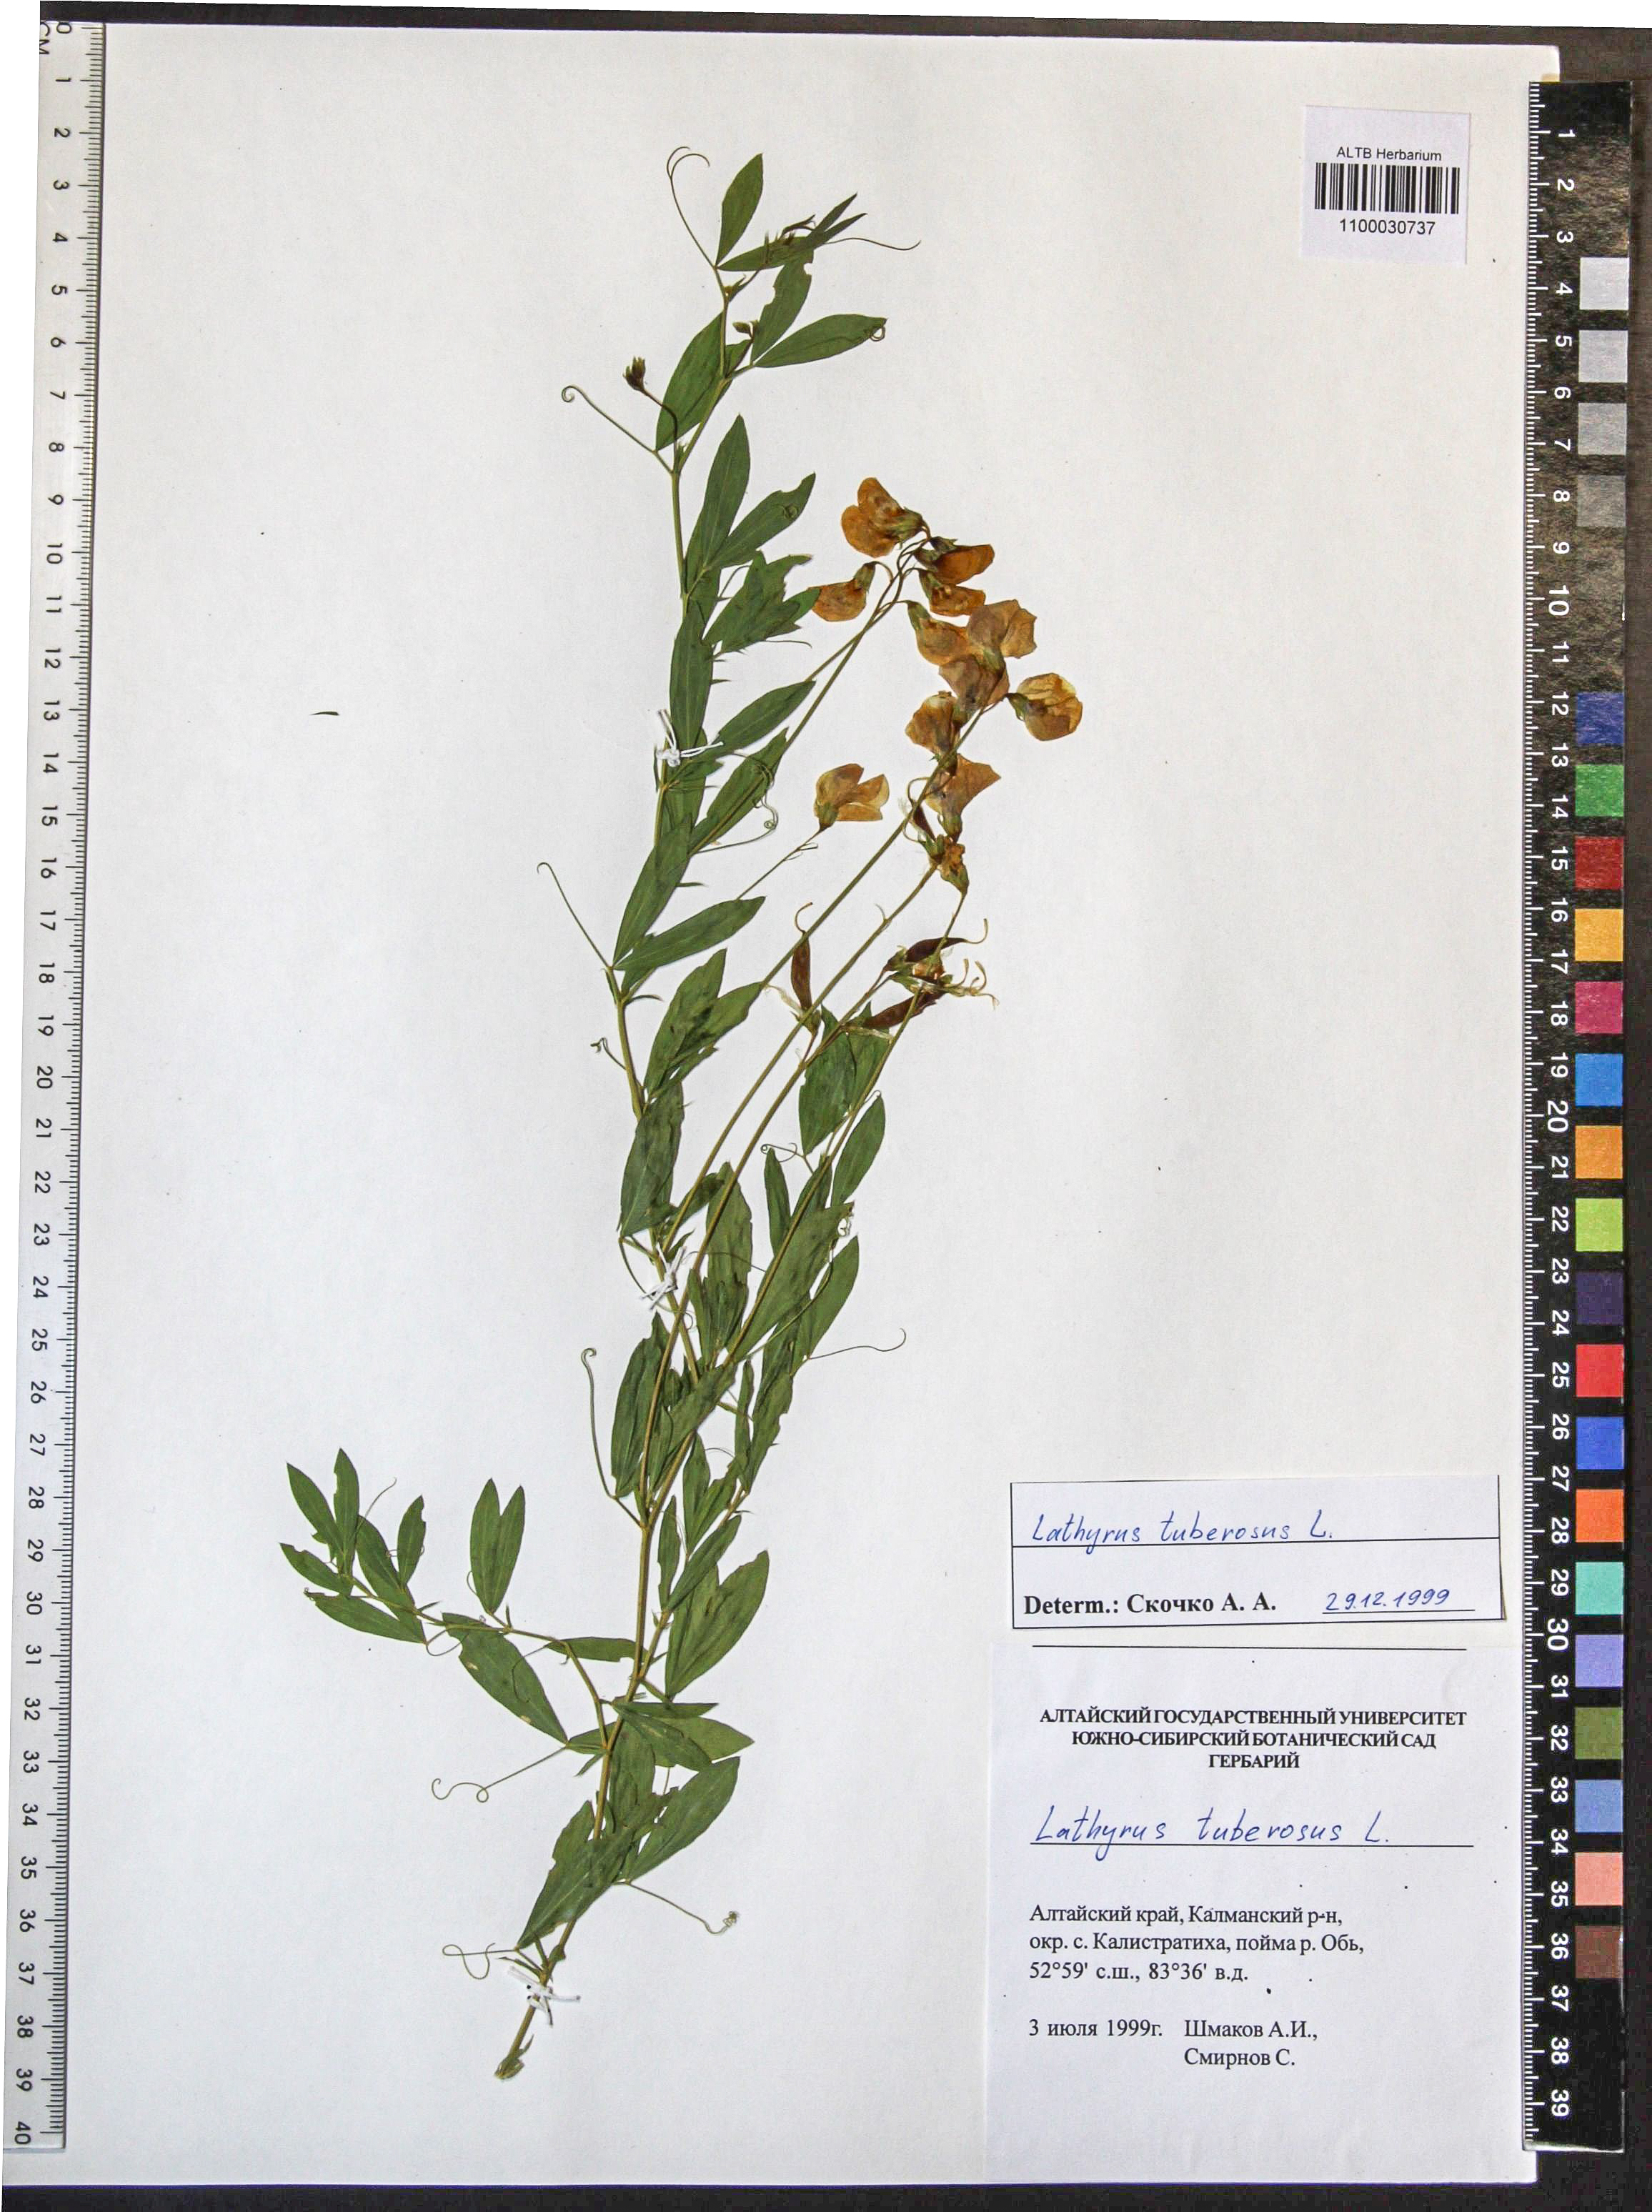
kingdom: Plantae
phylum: Tracheophyta
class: Magnoliopsida
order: Fabales
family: Fabaceae
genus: Lathyrus
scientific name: Lathyrus tuberosus
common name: Tuberous pea
